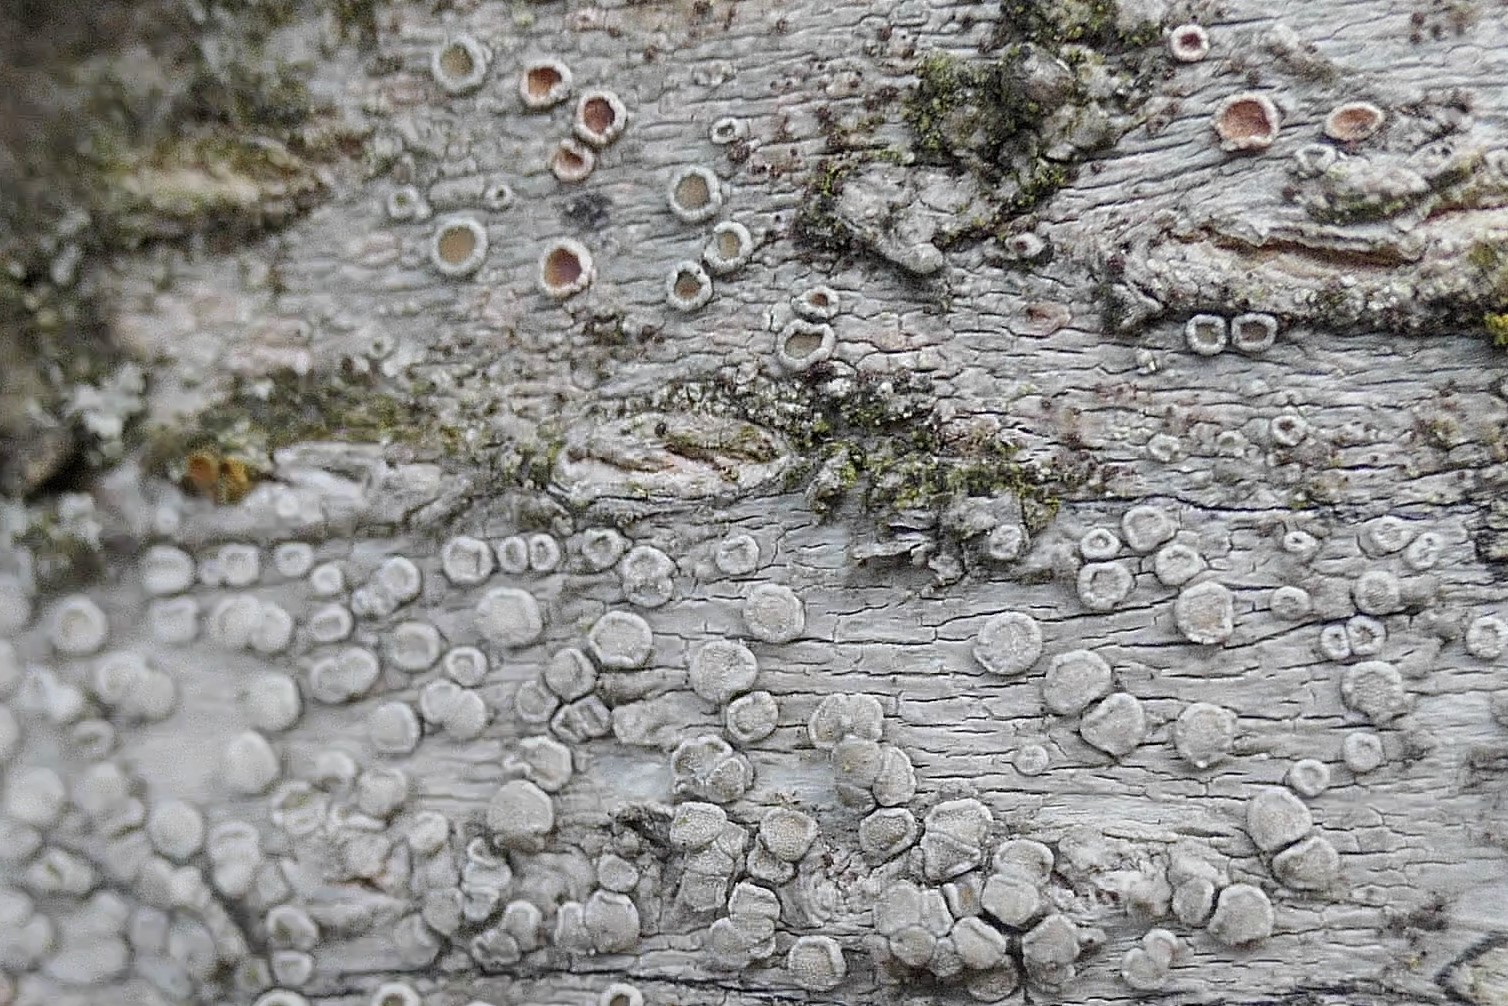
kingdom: Fungi
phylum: Ascomycota
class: Lecanoromycetes
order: Lecanorales
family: Lecanoraceae
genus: Glaucomaria
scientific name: Glaucomaria carpinea
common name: hviddugget kantskivelav
